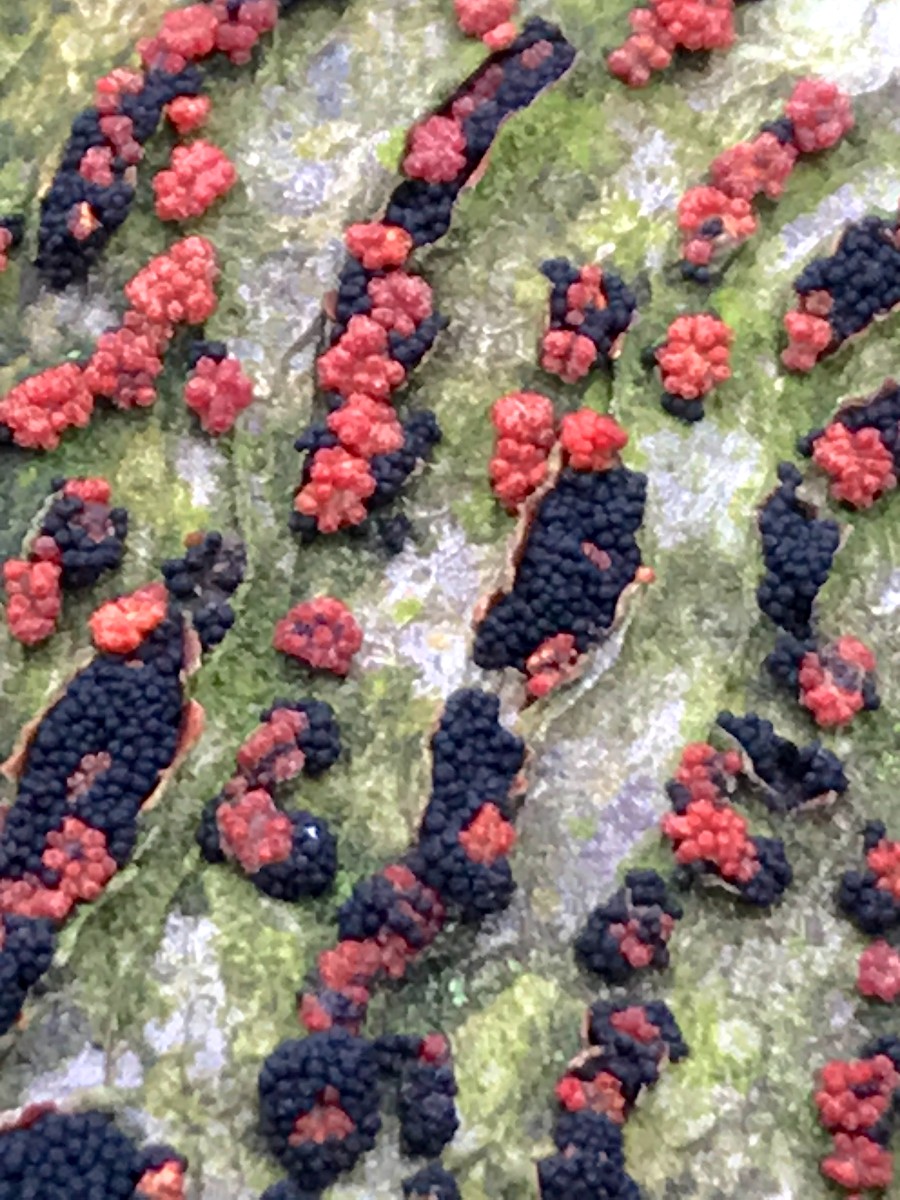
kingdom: Fungi
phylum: Ascomycota
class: Sordariomycetes
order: Coronophorales
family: Nitschkiaceae
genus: Nitschkia
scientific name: Nitschkia parasitans
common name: snyltende skålkerne
